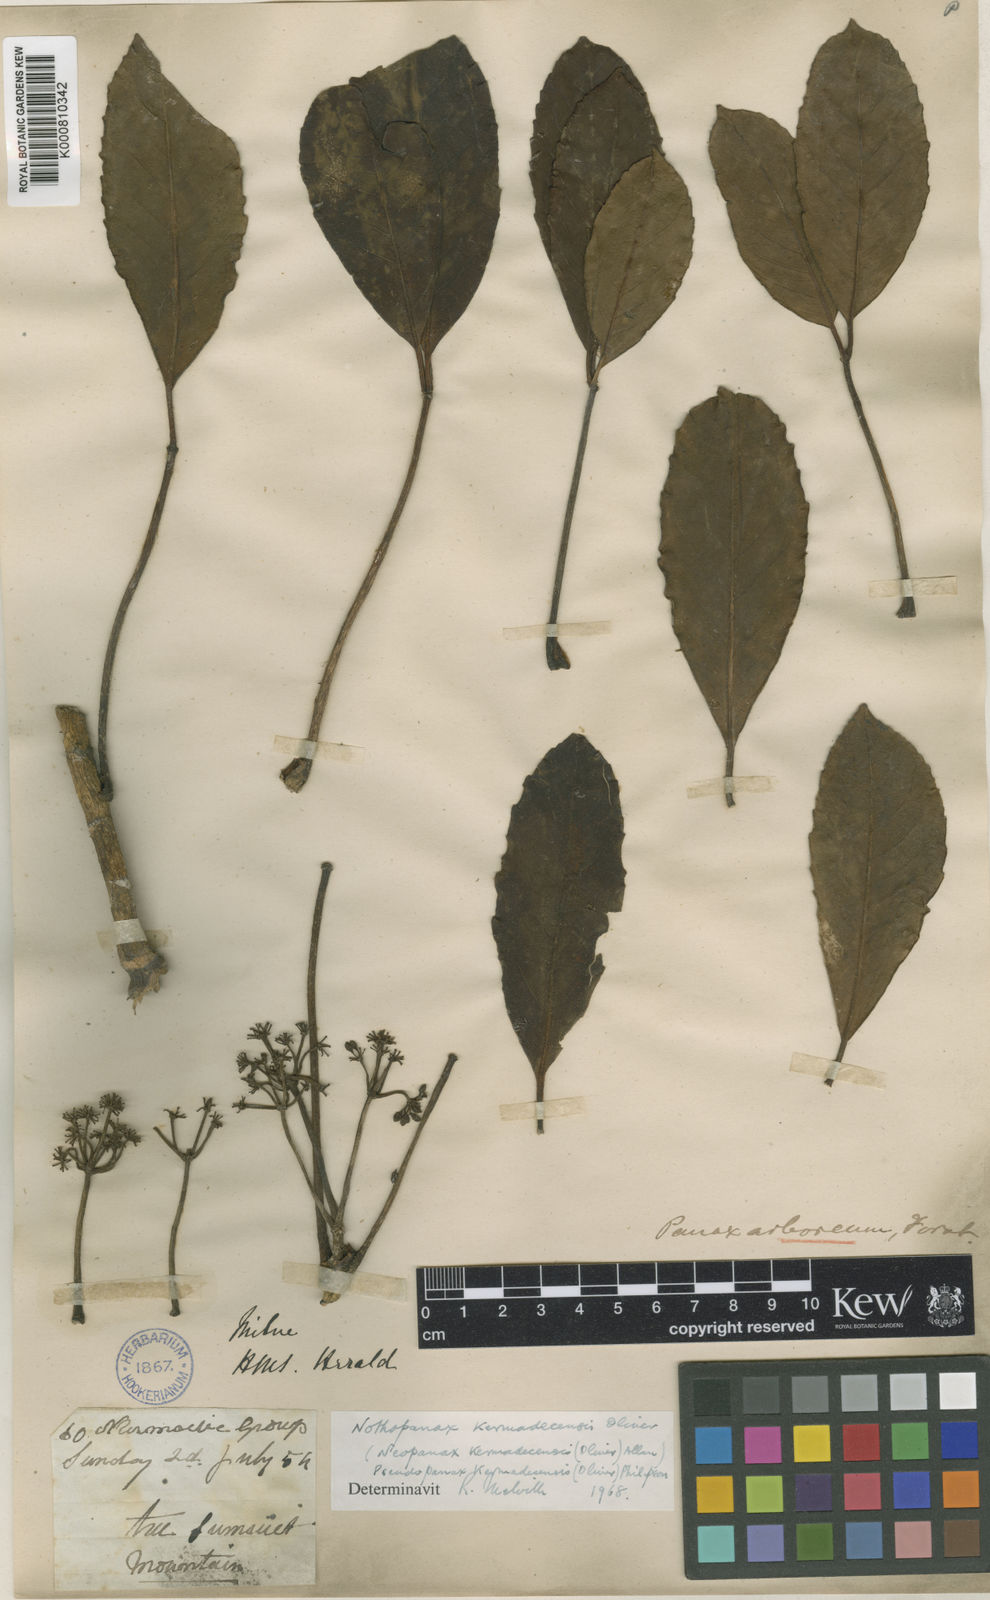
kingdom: Plantae
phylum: Tracheophyta
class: Magnoliopsida
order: Apiales
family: Araliaceae
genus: Neopanax
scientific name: Neopanax kermadecense
